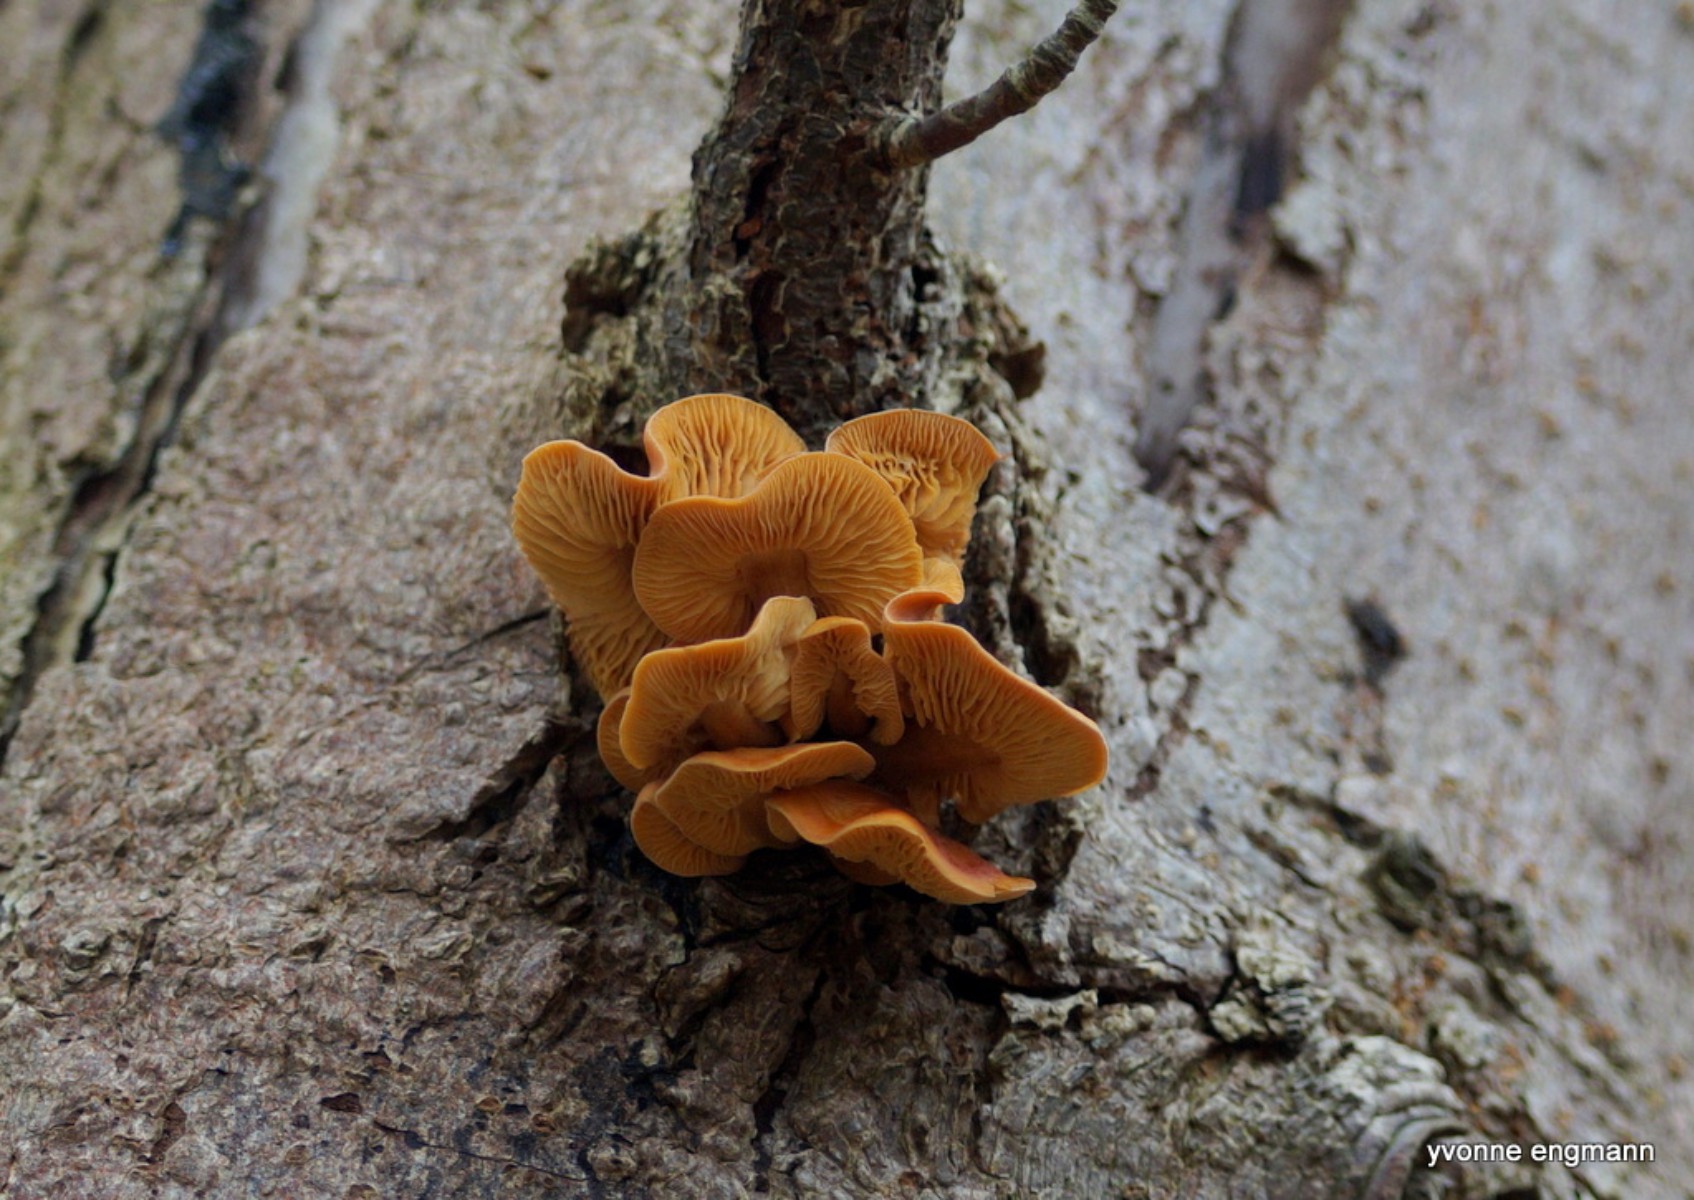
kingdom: Fungi
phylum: Basidiomycota
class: Agaricomycetes
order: Agaricales
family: Physalacriaceae
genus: Flammulina
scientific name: Flammulina velutipes
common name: gul fløjlsfod
